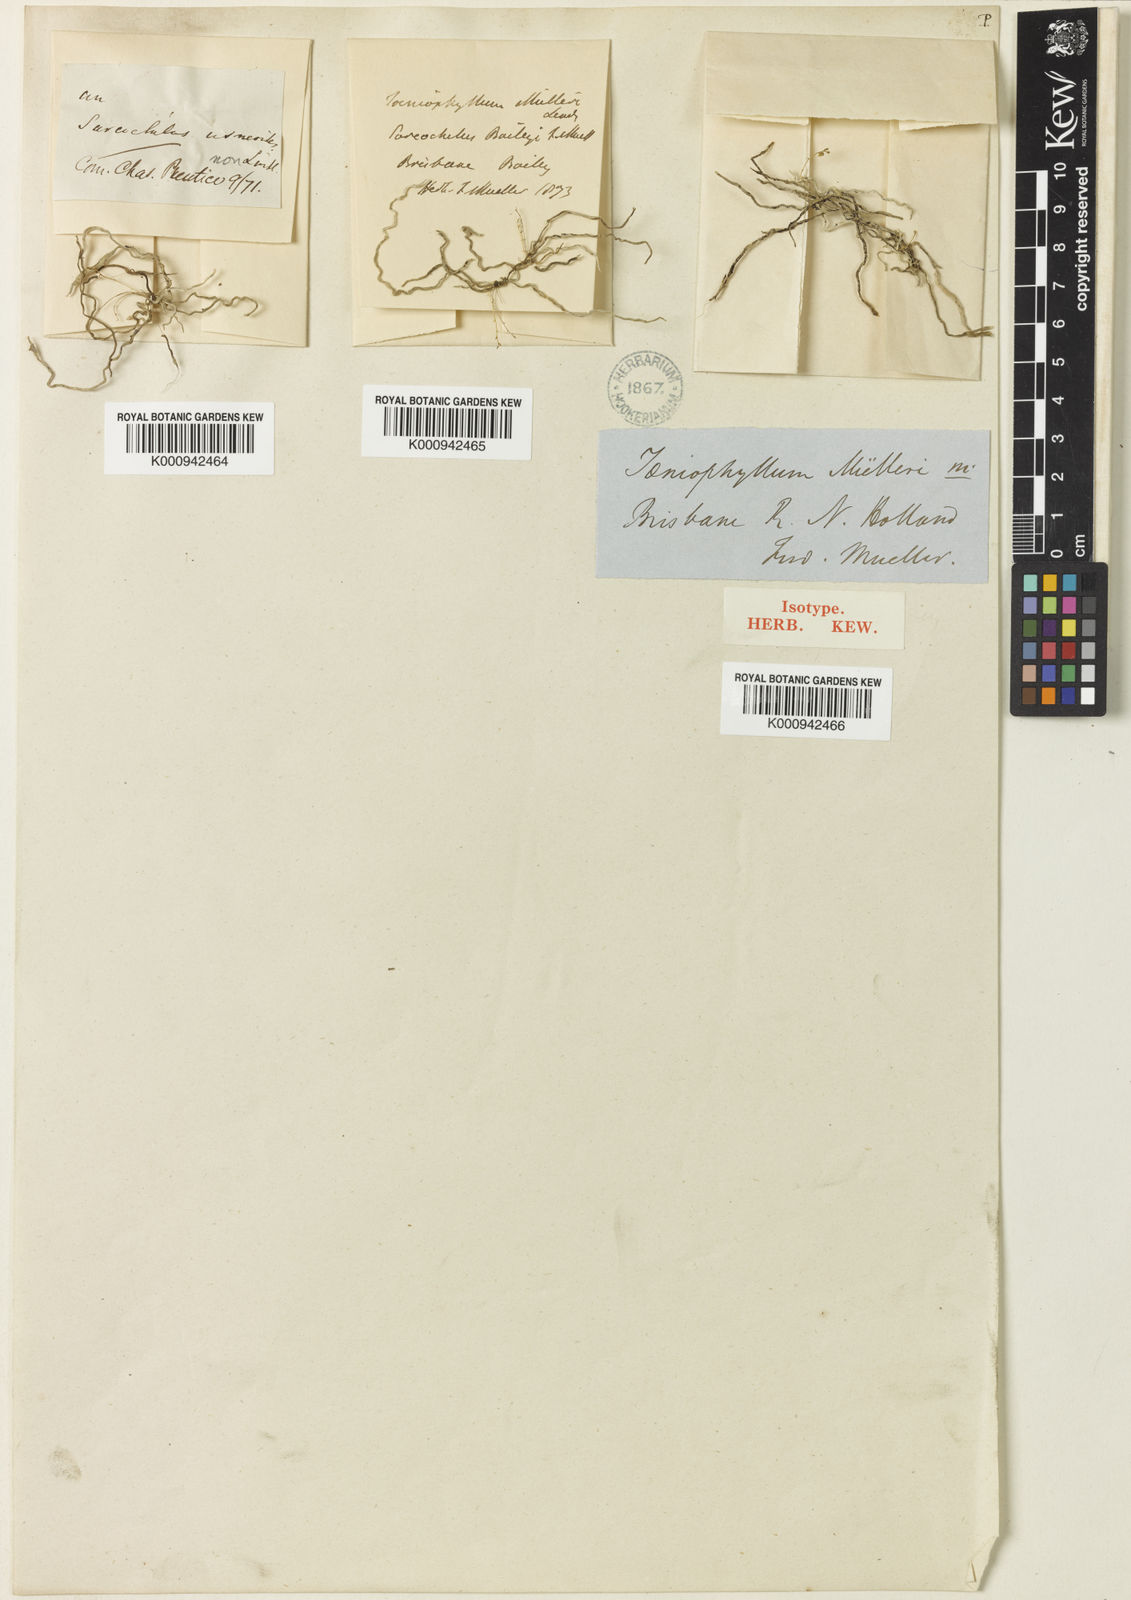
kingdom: Plantae
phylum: Tracheophyta
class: Liliopsida
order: Asparagales
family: Orchidaceae
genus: Taeniophyllum
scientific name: Taeniophyllum muelleri
